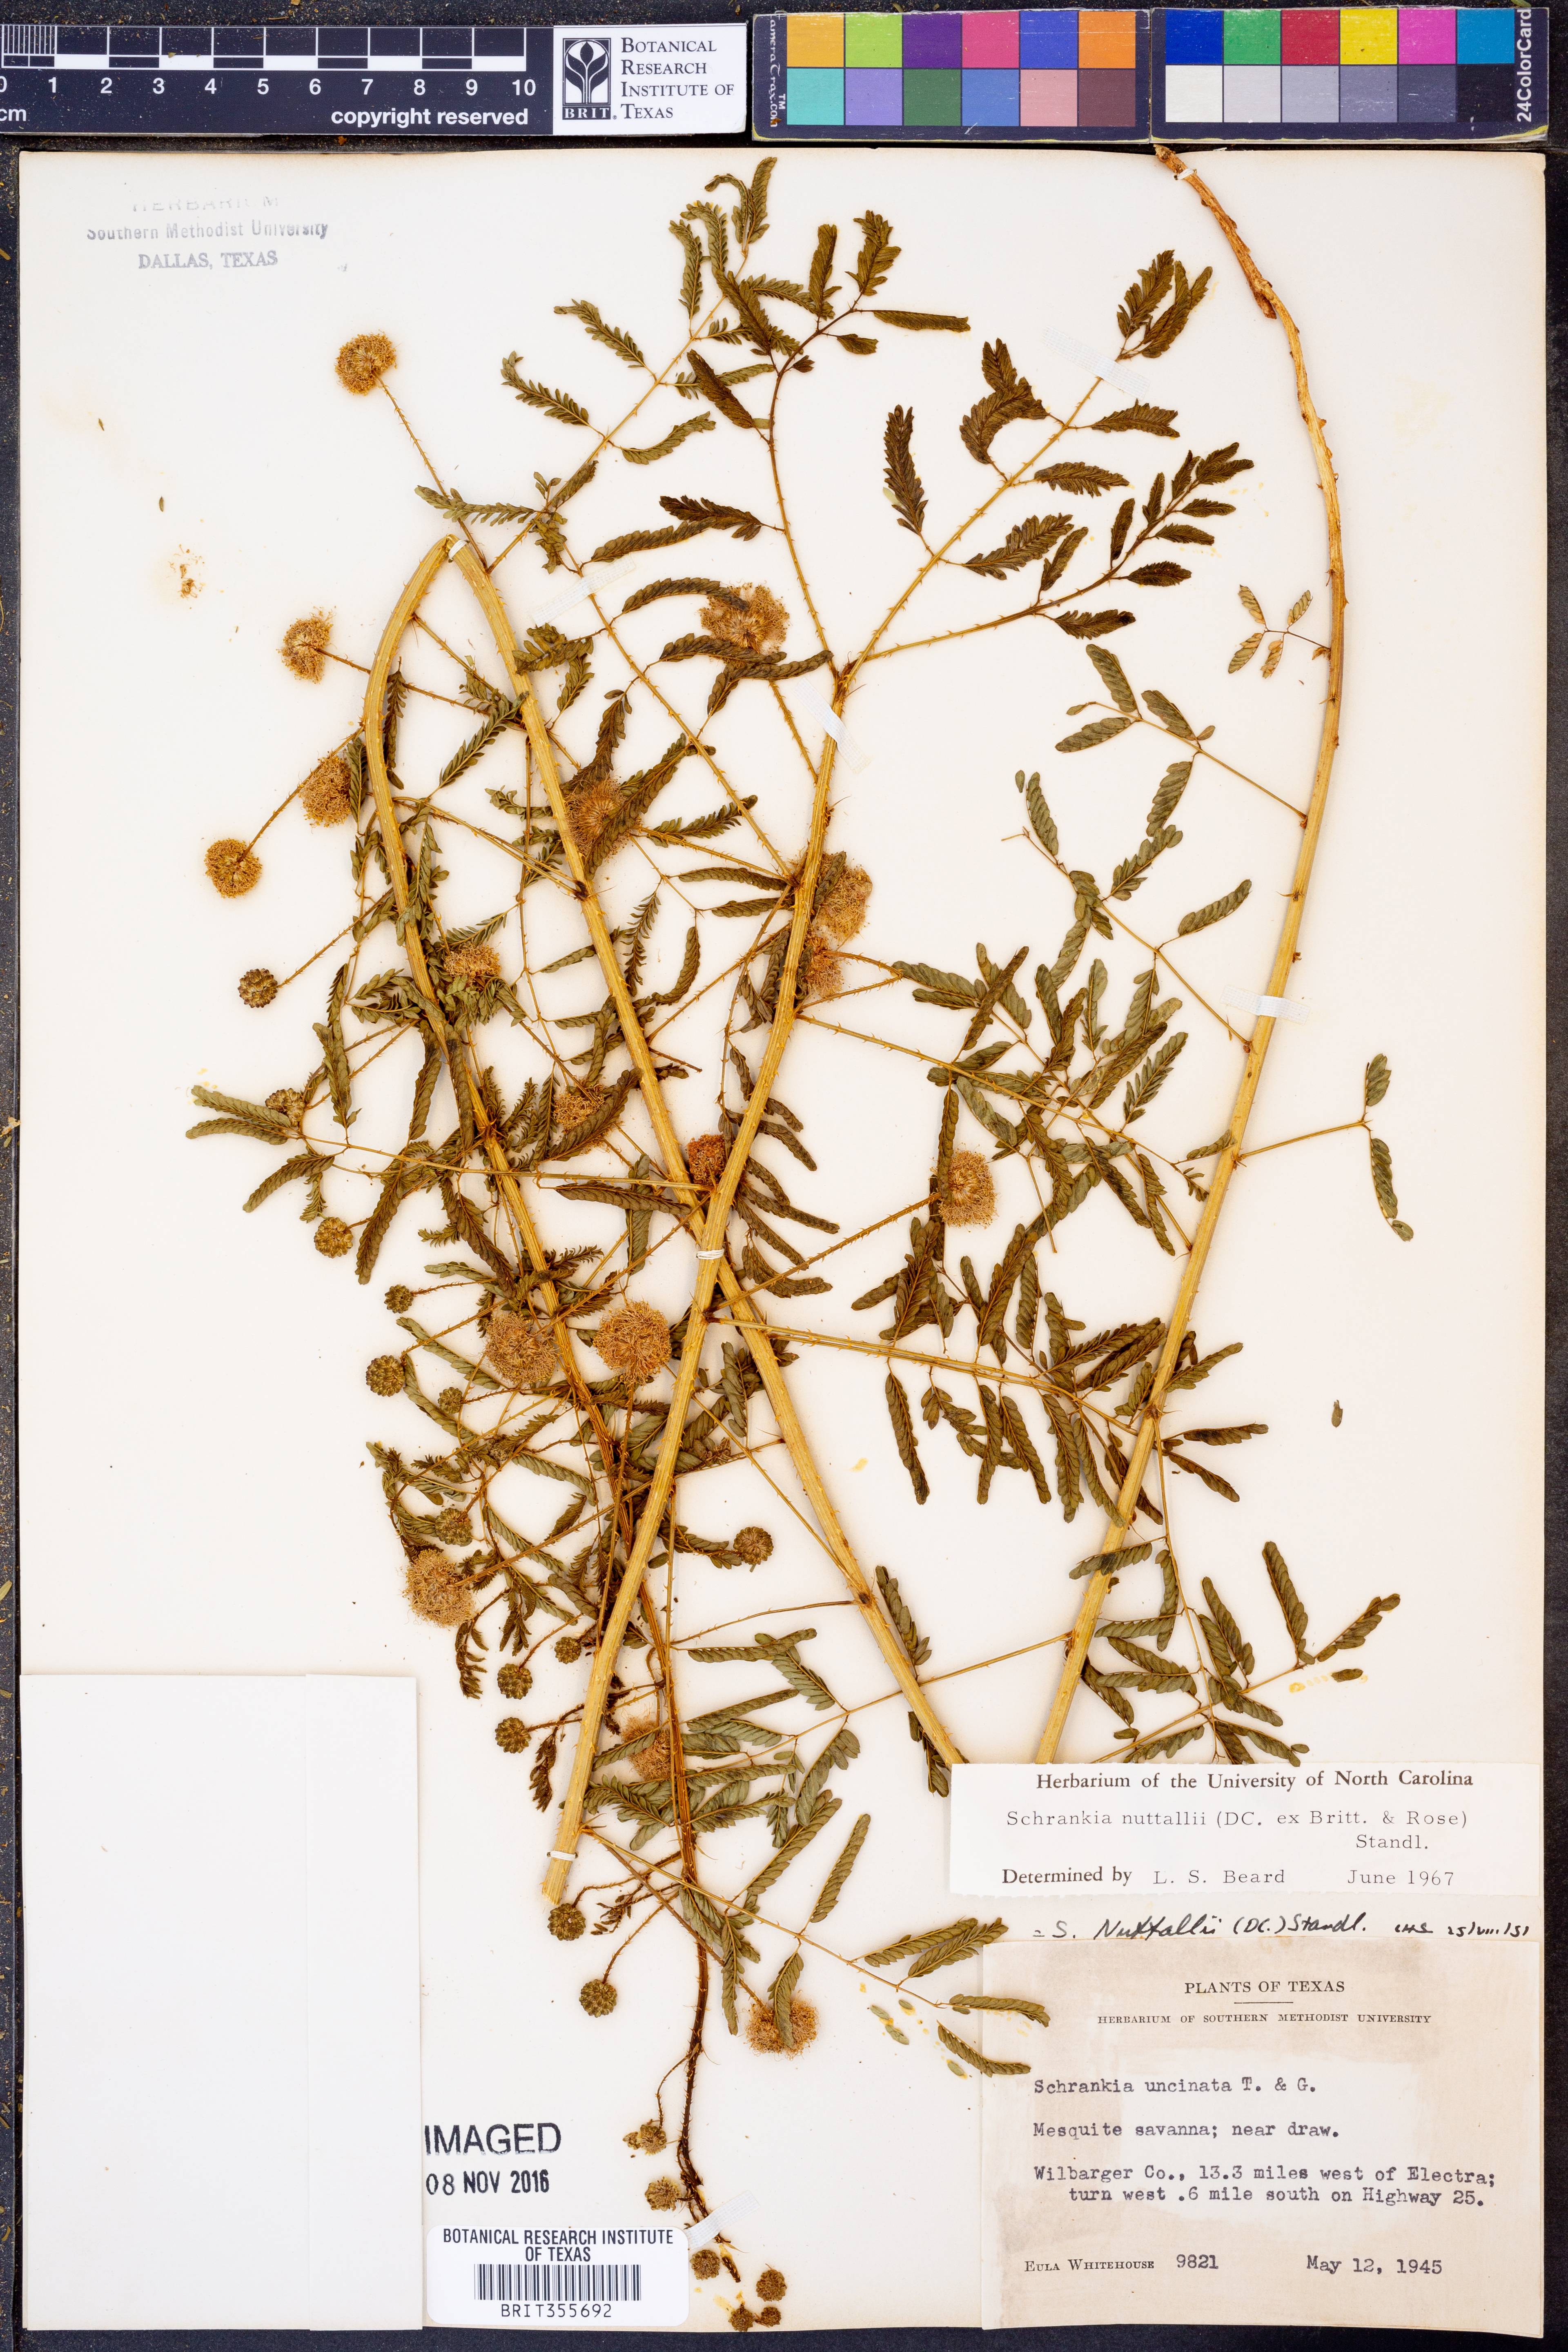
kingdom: Plantae
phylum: Tracheophyta
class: Magnoliopsida
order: Fabales
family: Fabaceae
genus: Mimosa
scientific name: Mimosa quadrivalvis
